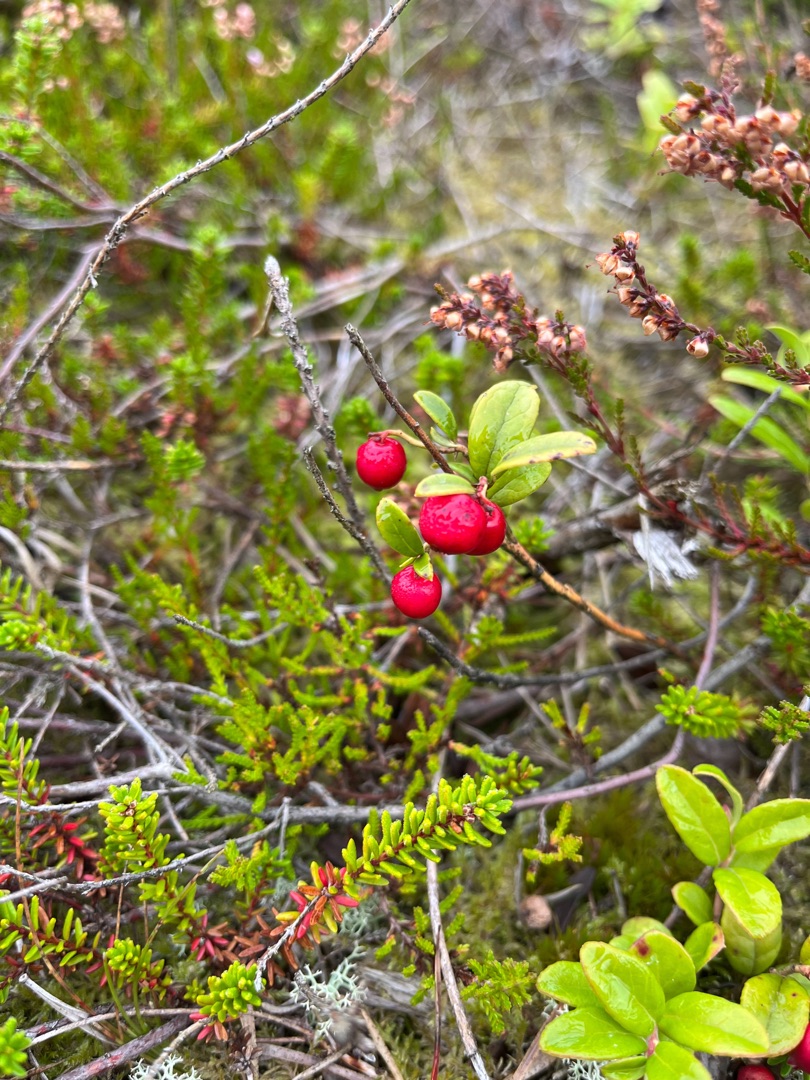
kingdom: Plantae
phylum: Tracheophyta
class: Magnoliopsida
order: Ericales
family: Ericaceae
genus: Vaccinium
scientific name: Vaccinium vitis-idaea
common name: Tyttebær
